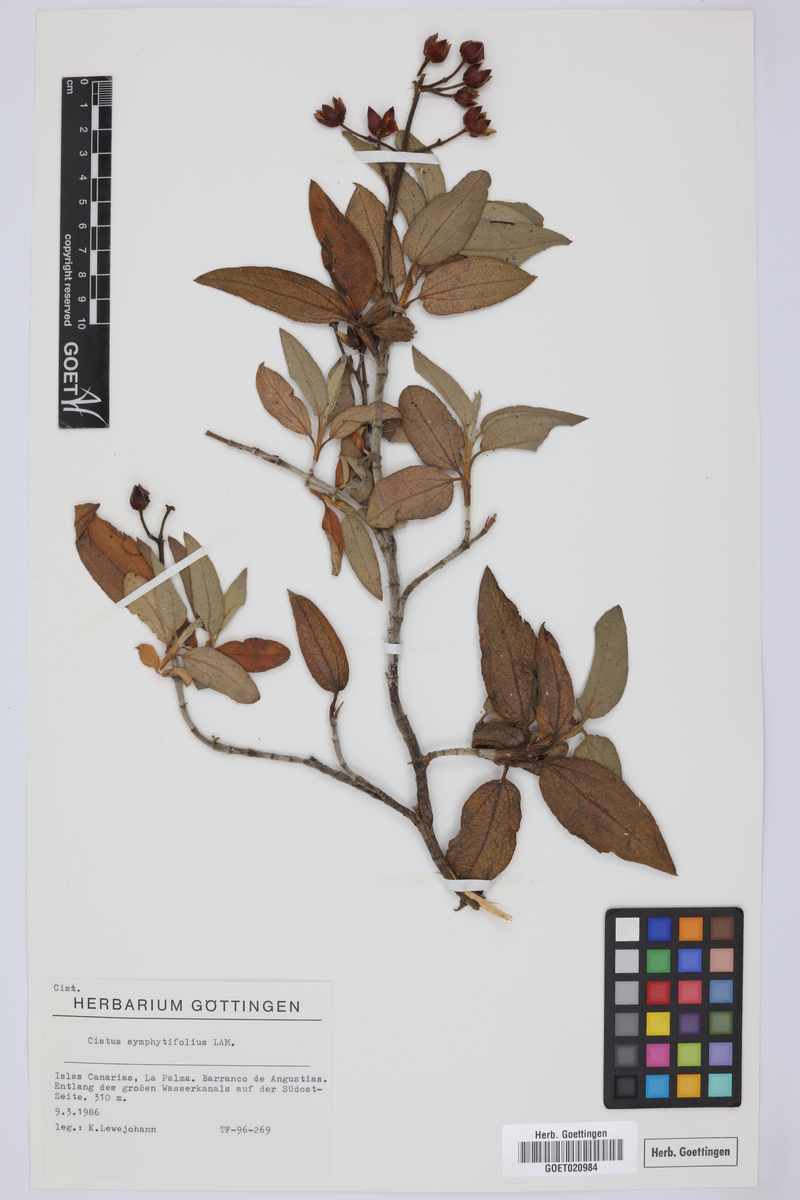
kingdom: Plantae
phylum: Tracheophyta
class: Magnoliopsida
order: Malvales
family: Cistaceae
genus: Cistus
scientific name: Cistus symphytifolius
